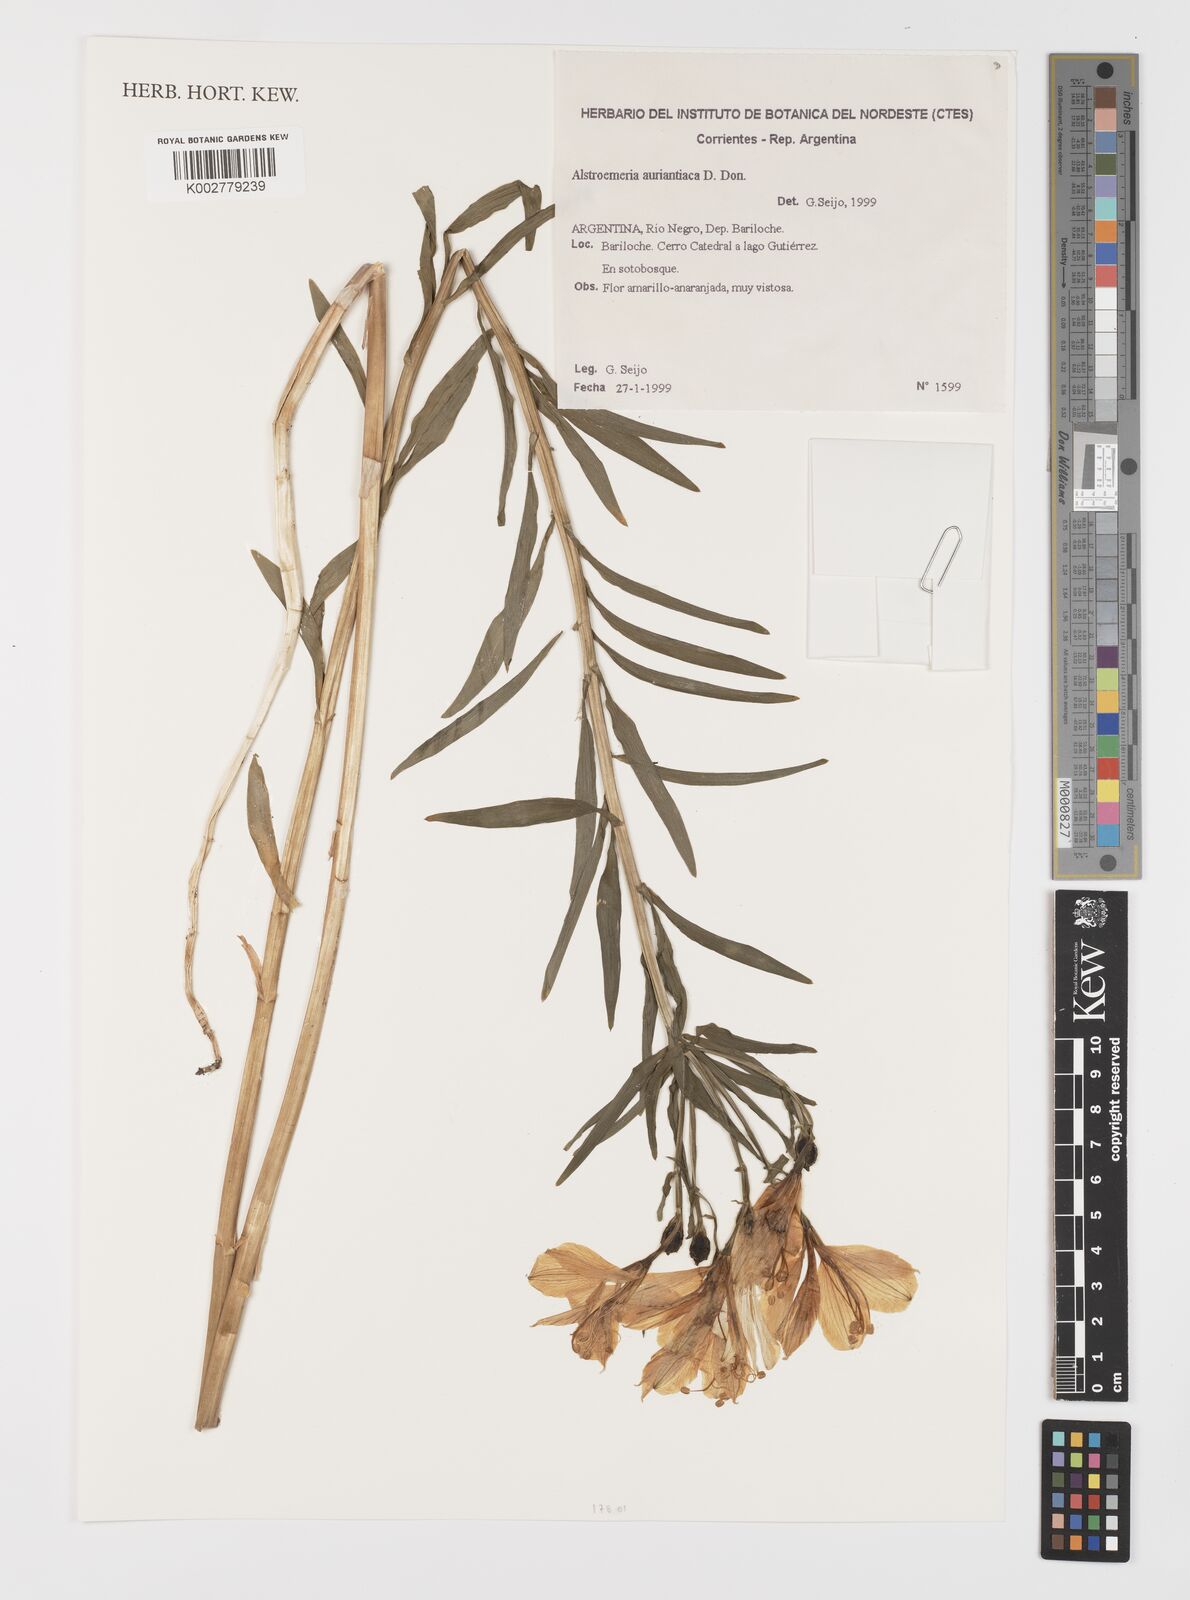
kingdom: Plantae
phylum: Tracheophyta
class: Liliopsida
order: Liliales
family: Alstroemeriaceae
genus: Alstroemeria
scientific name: Alstroemeria aurea
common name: Peruvian lily
